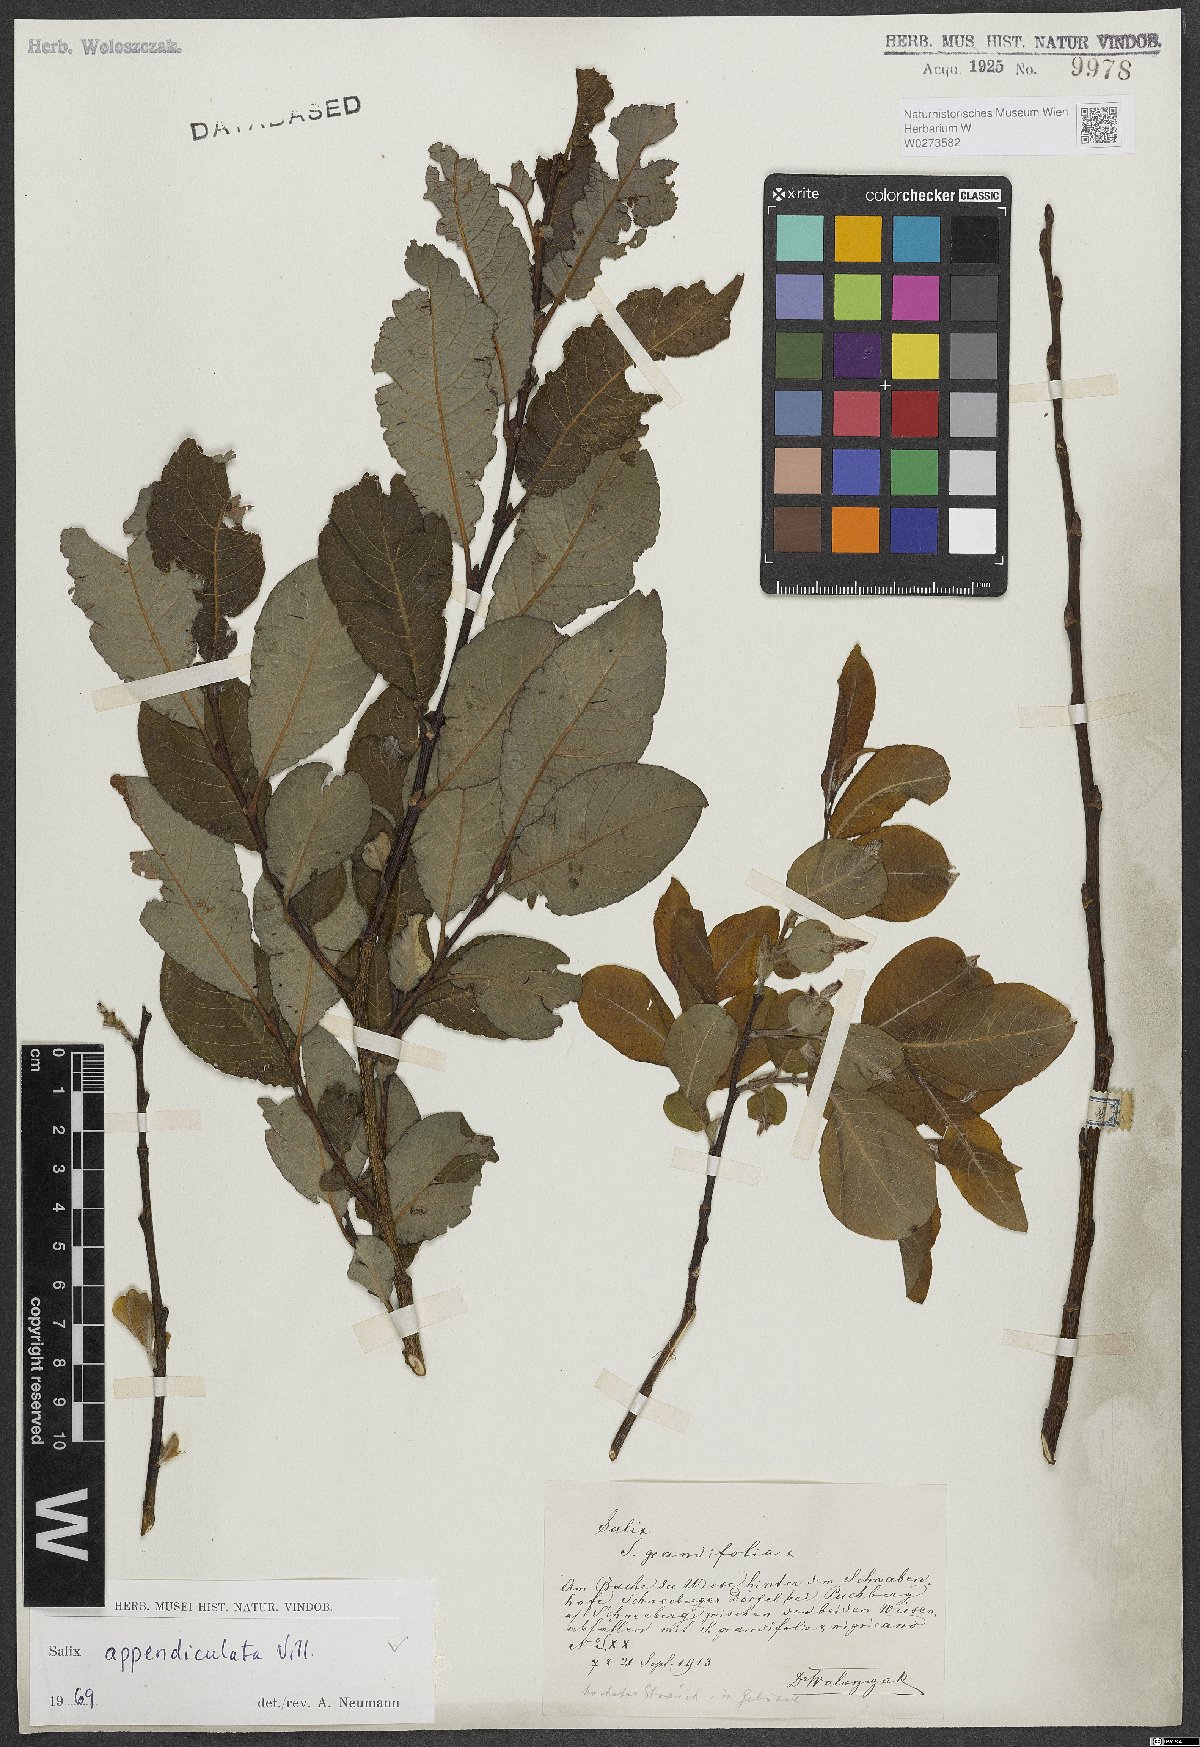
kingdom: Plantae
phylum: Tracheophyta
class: Magnoliopsida
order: Malpighiales
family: Salicaceae
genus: Salix
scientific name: Salix appendiculata
